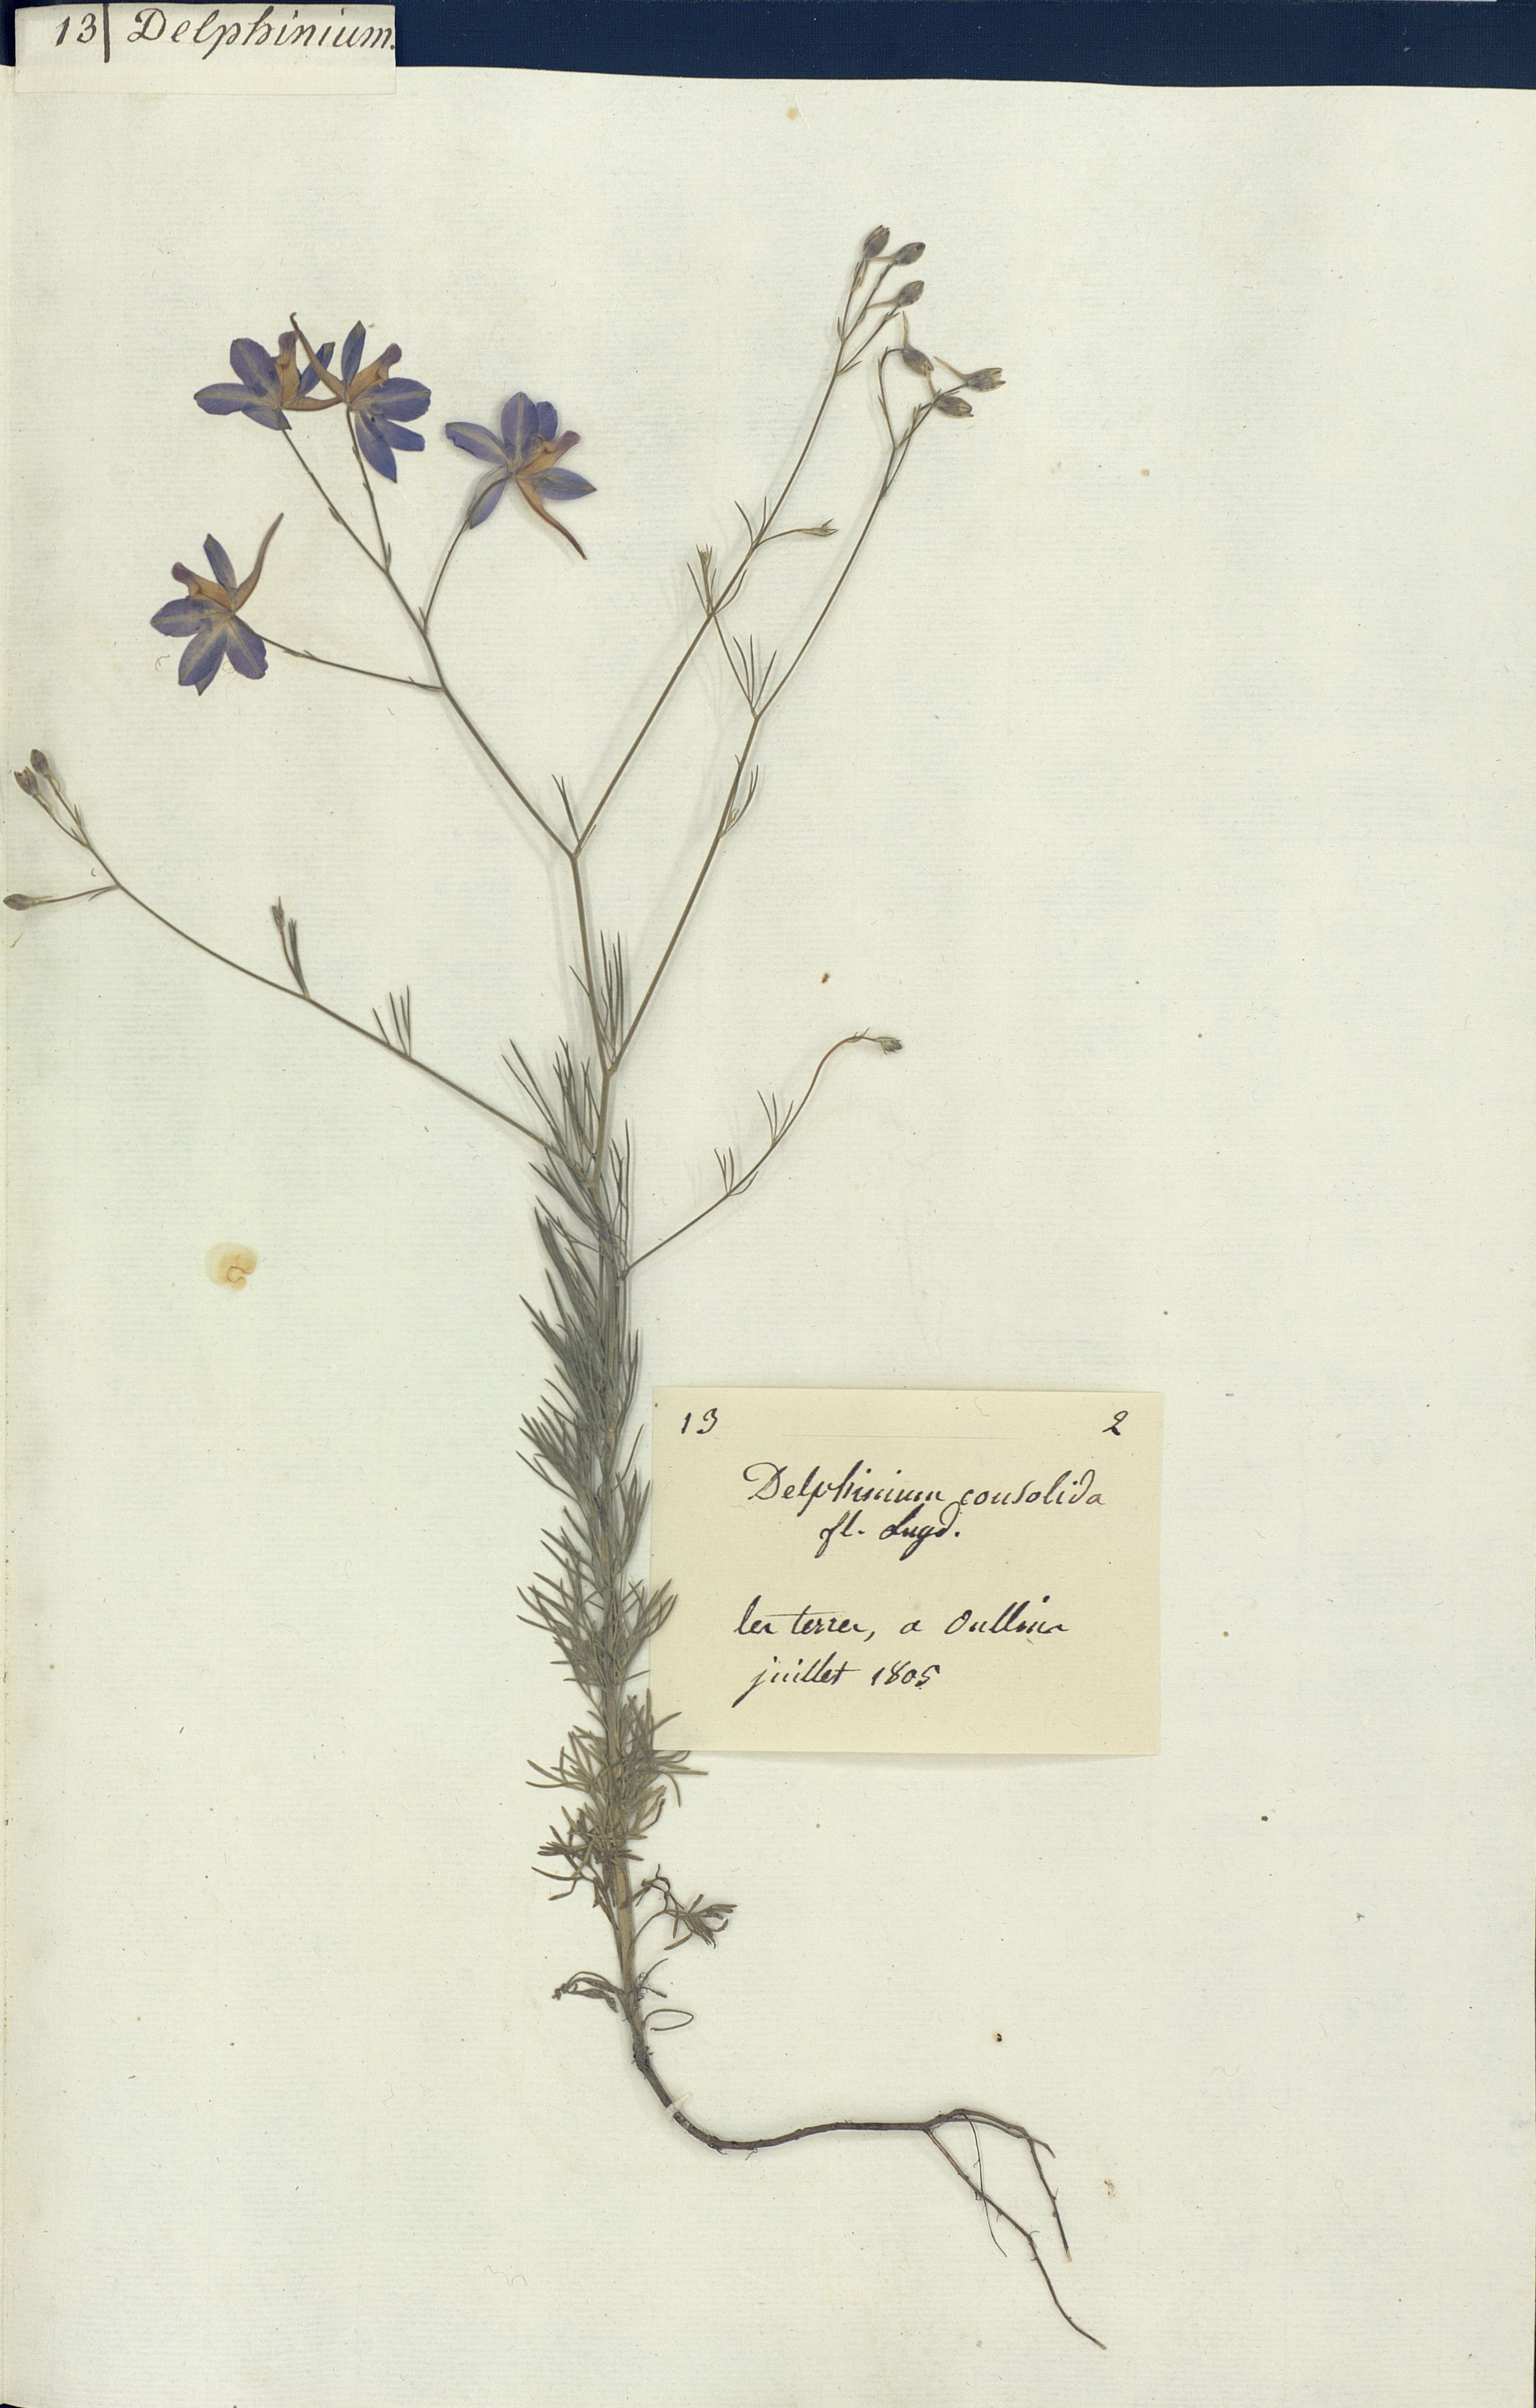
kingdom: Plantae
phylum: Tracheophyta
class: Magnoliopsida
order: Ranunculales
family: Ranunculaceae
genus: Delphinium
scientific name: Delphinium consolida
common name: Branching larkspur
